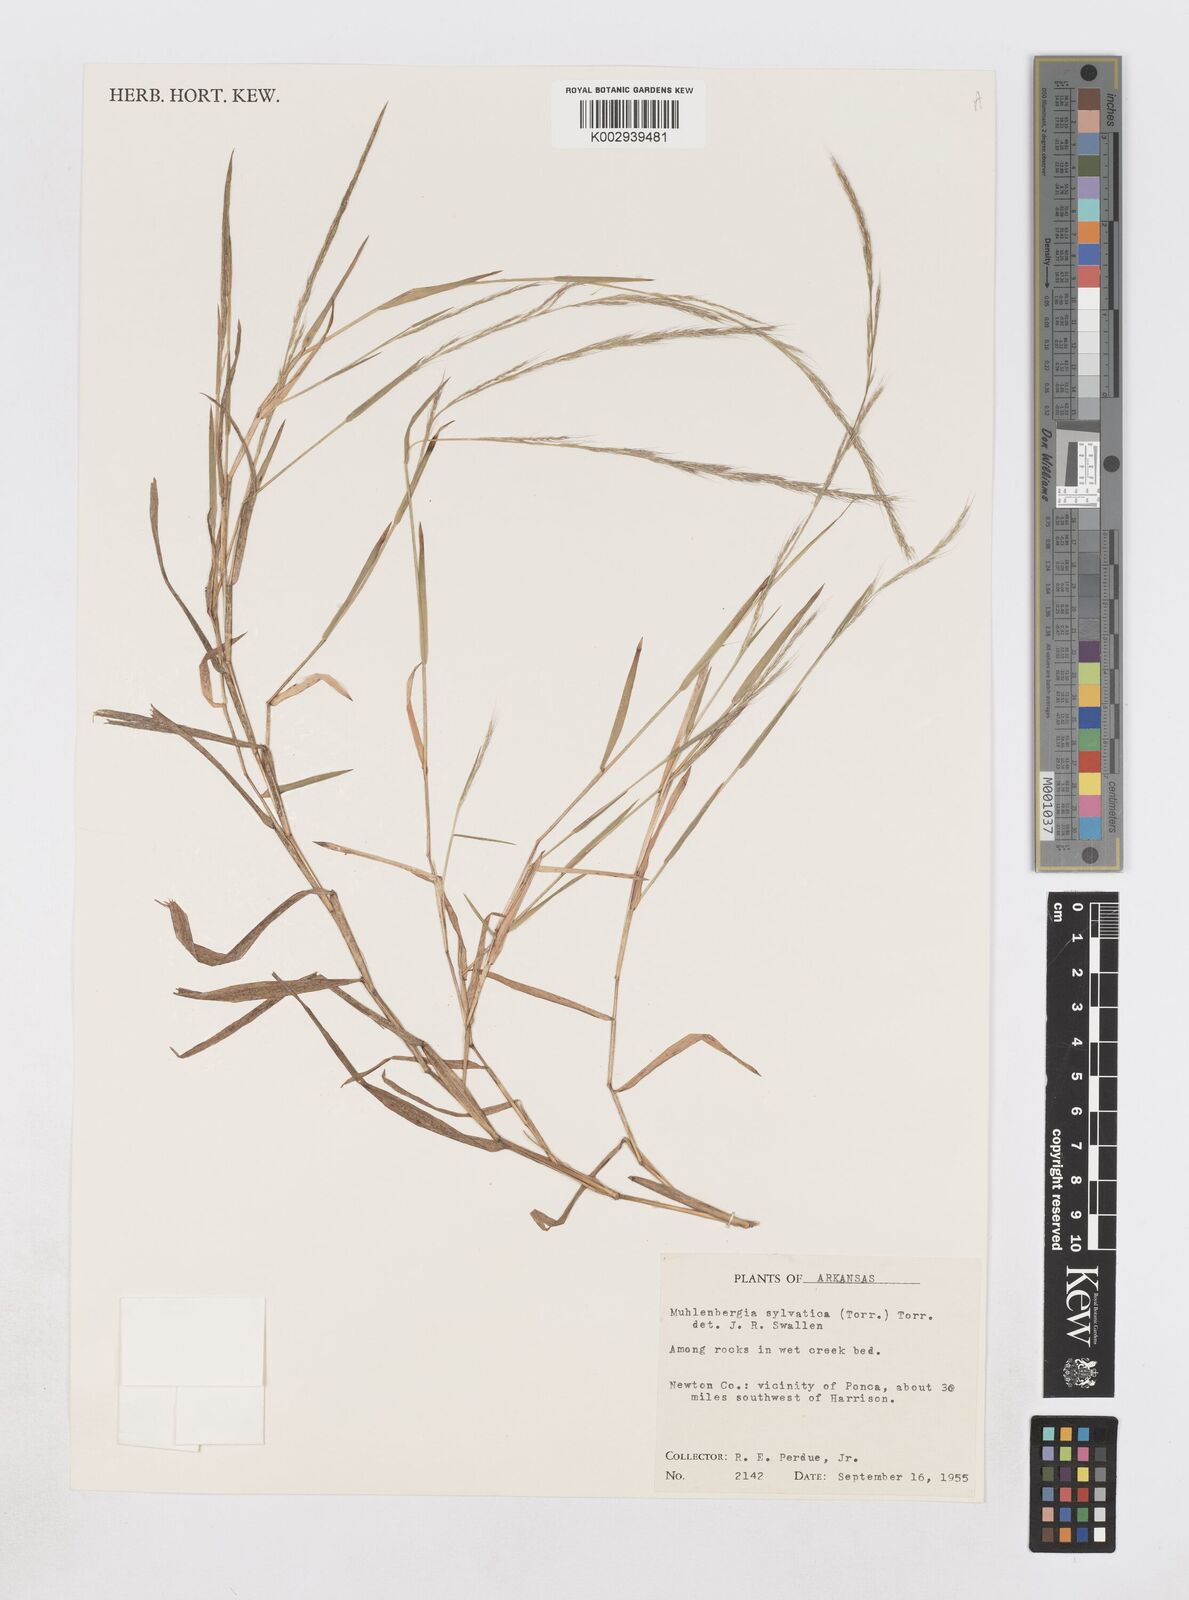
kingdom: Plantae
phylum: Tracheophyta
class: Liliopsida
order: Poales
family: Poaceae
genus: Muhlenbergia
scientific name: Muhlenbergia sylvatica
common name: Woodland muhly
